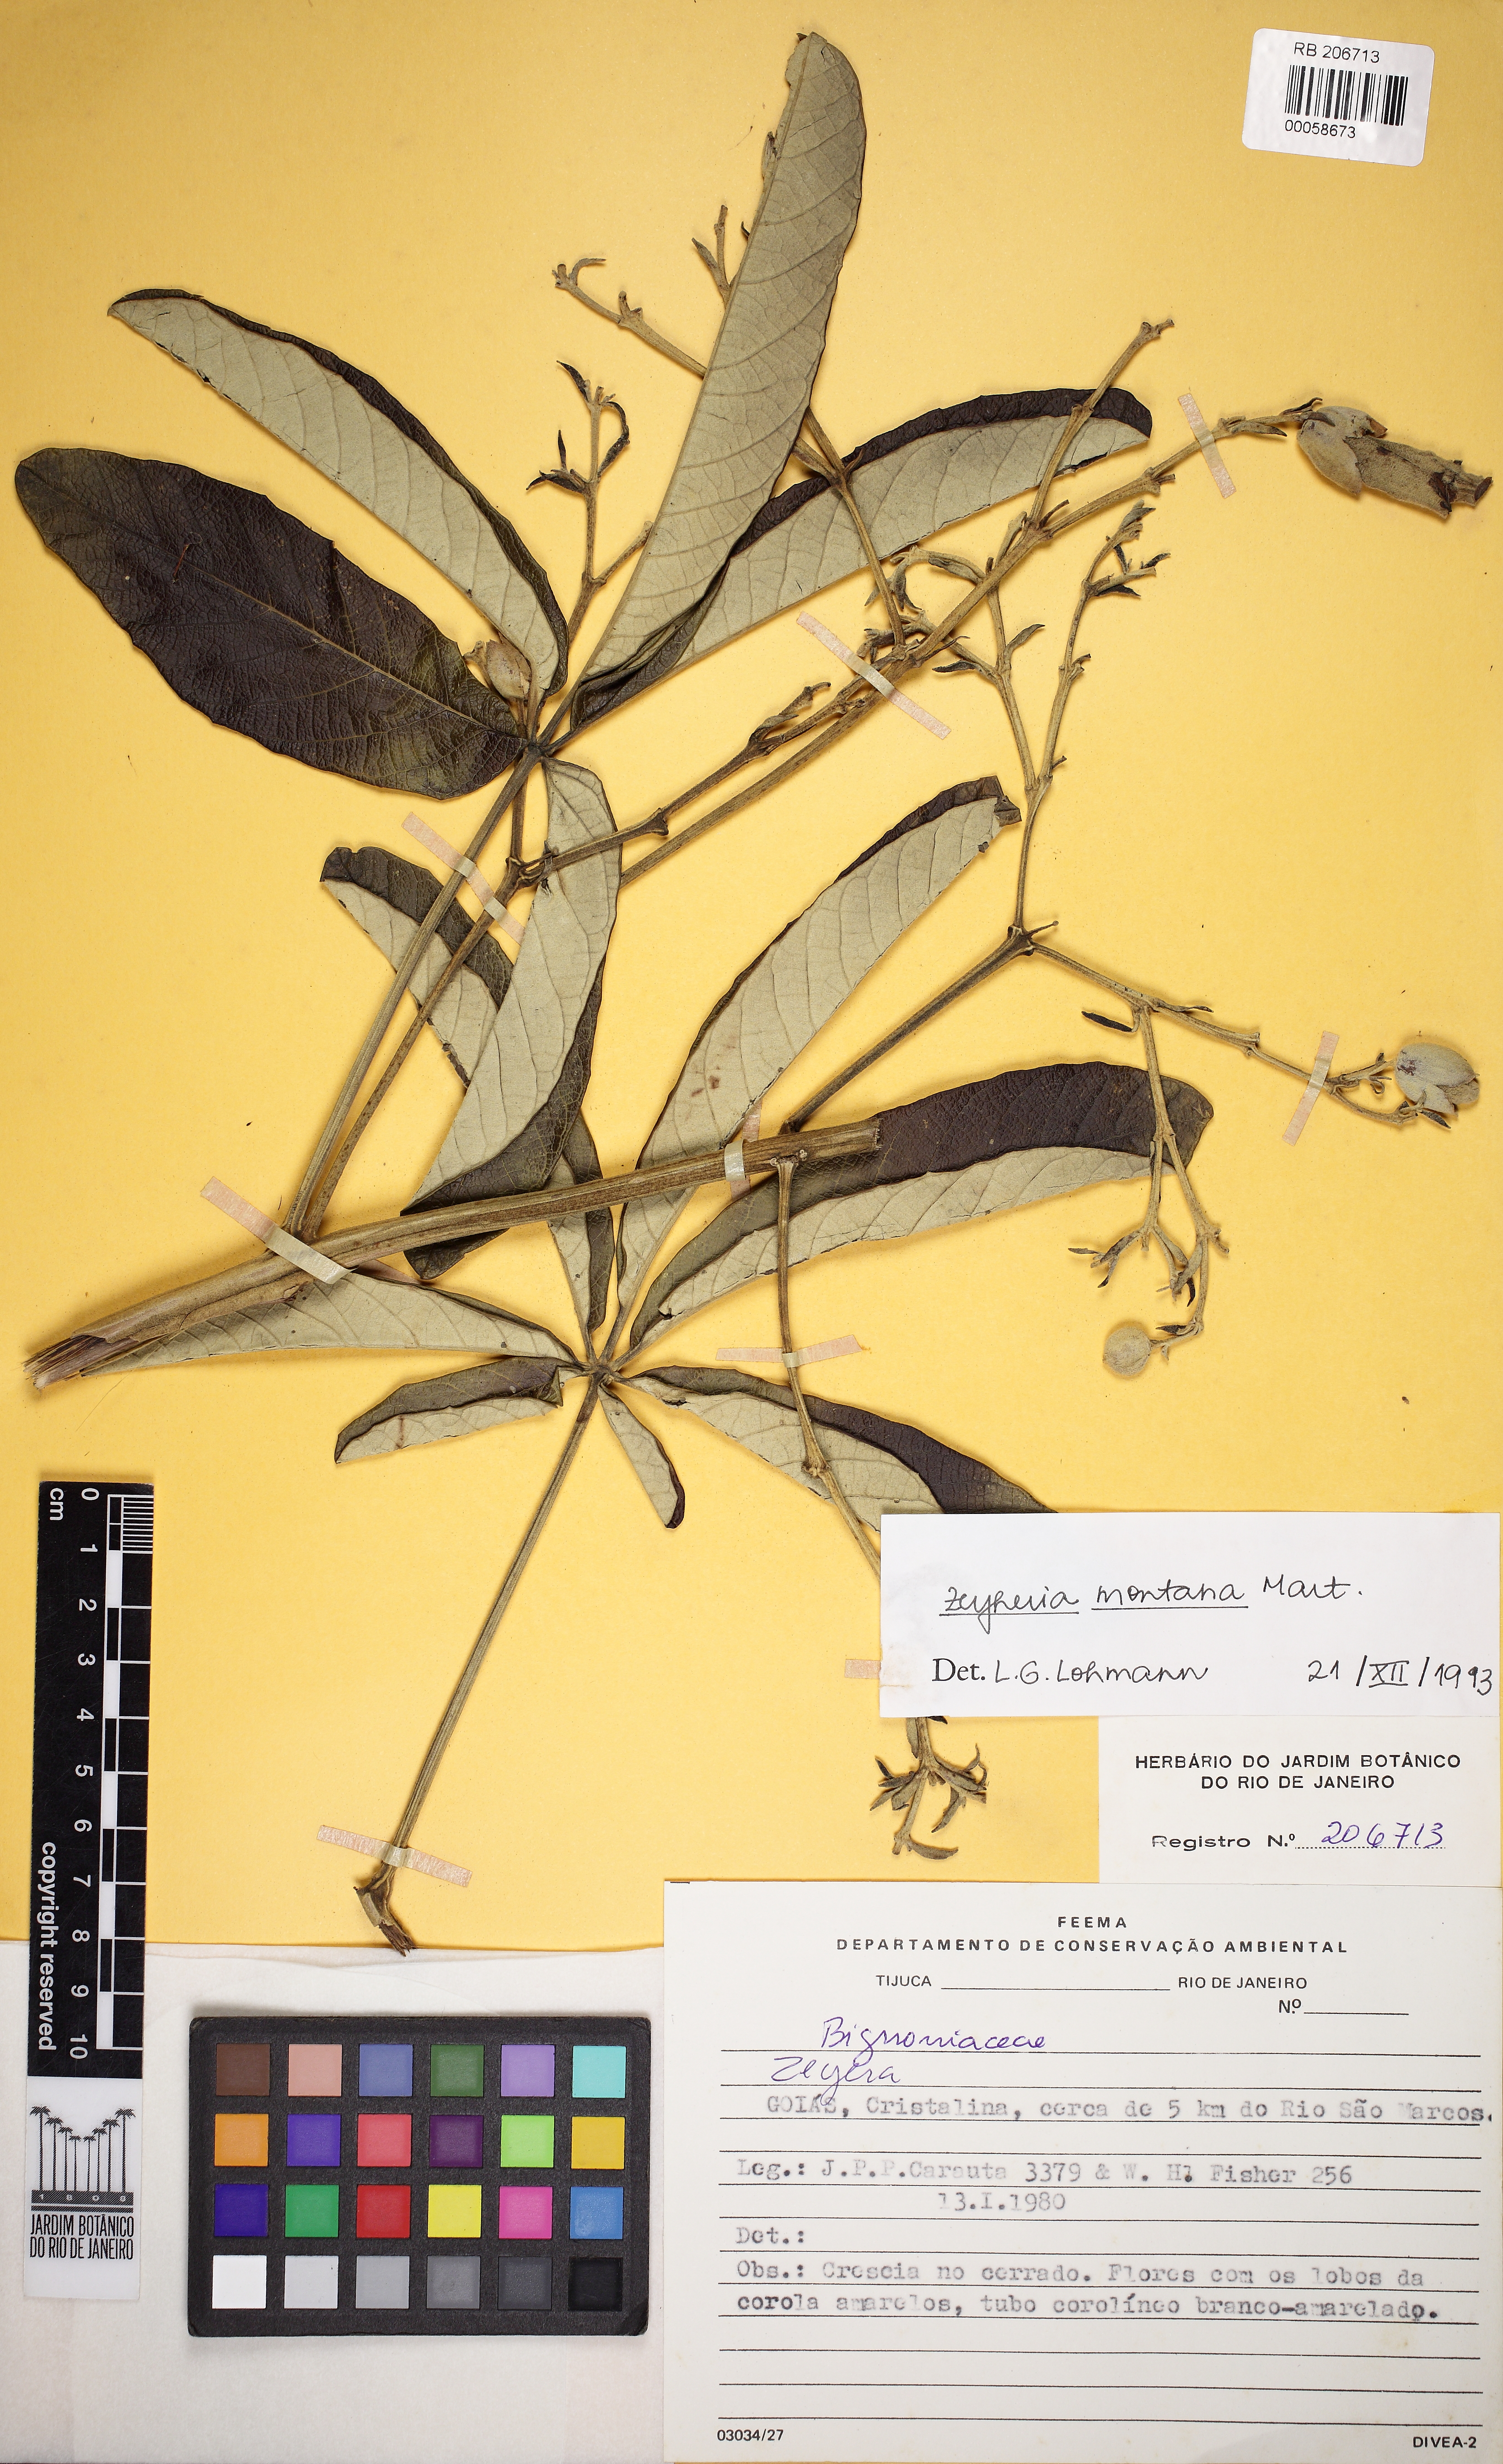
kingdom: Plantae
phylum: Tracheophyta
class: Magnoliopsida
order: Lamiales
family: Bignoniaceae
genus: Zeyheria
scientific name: Zeyheria montana
